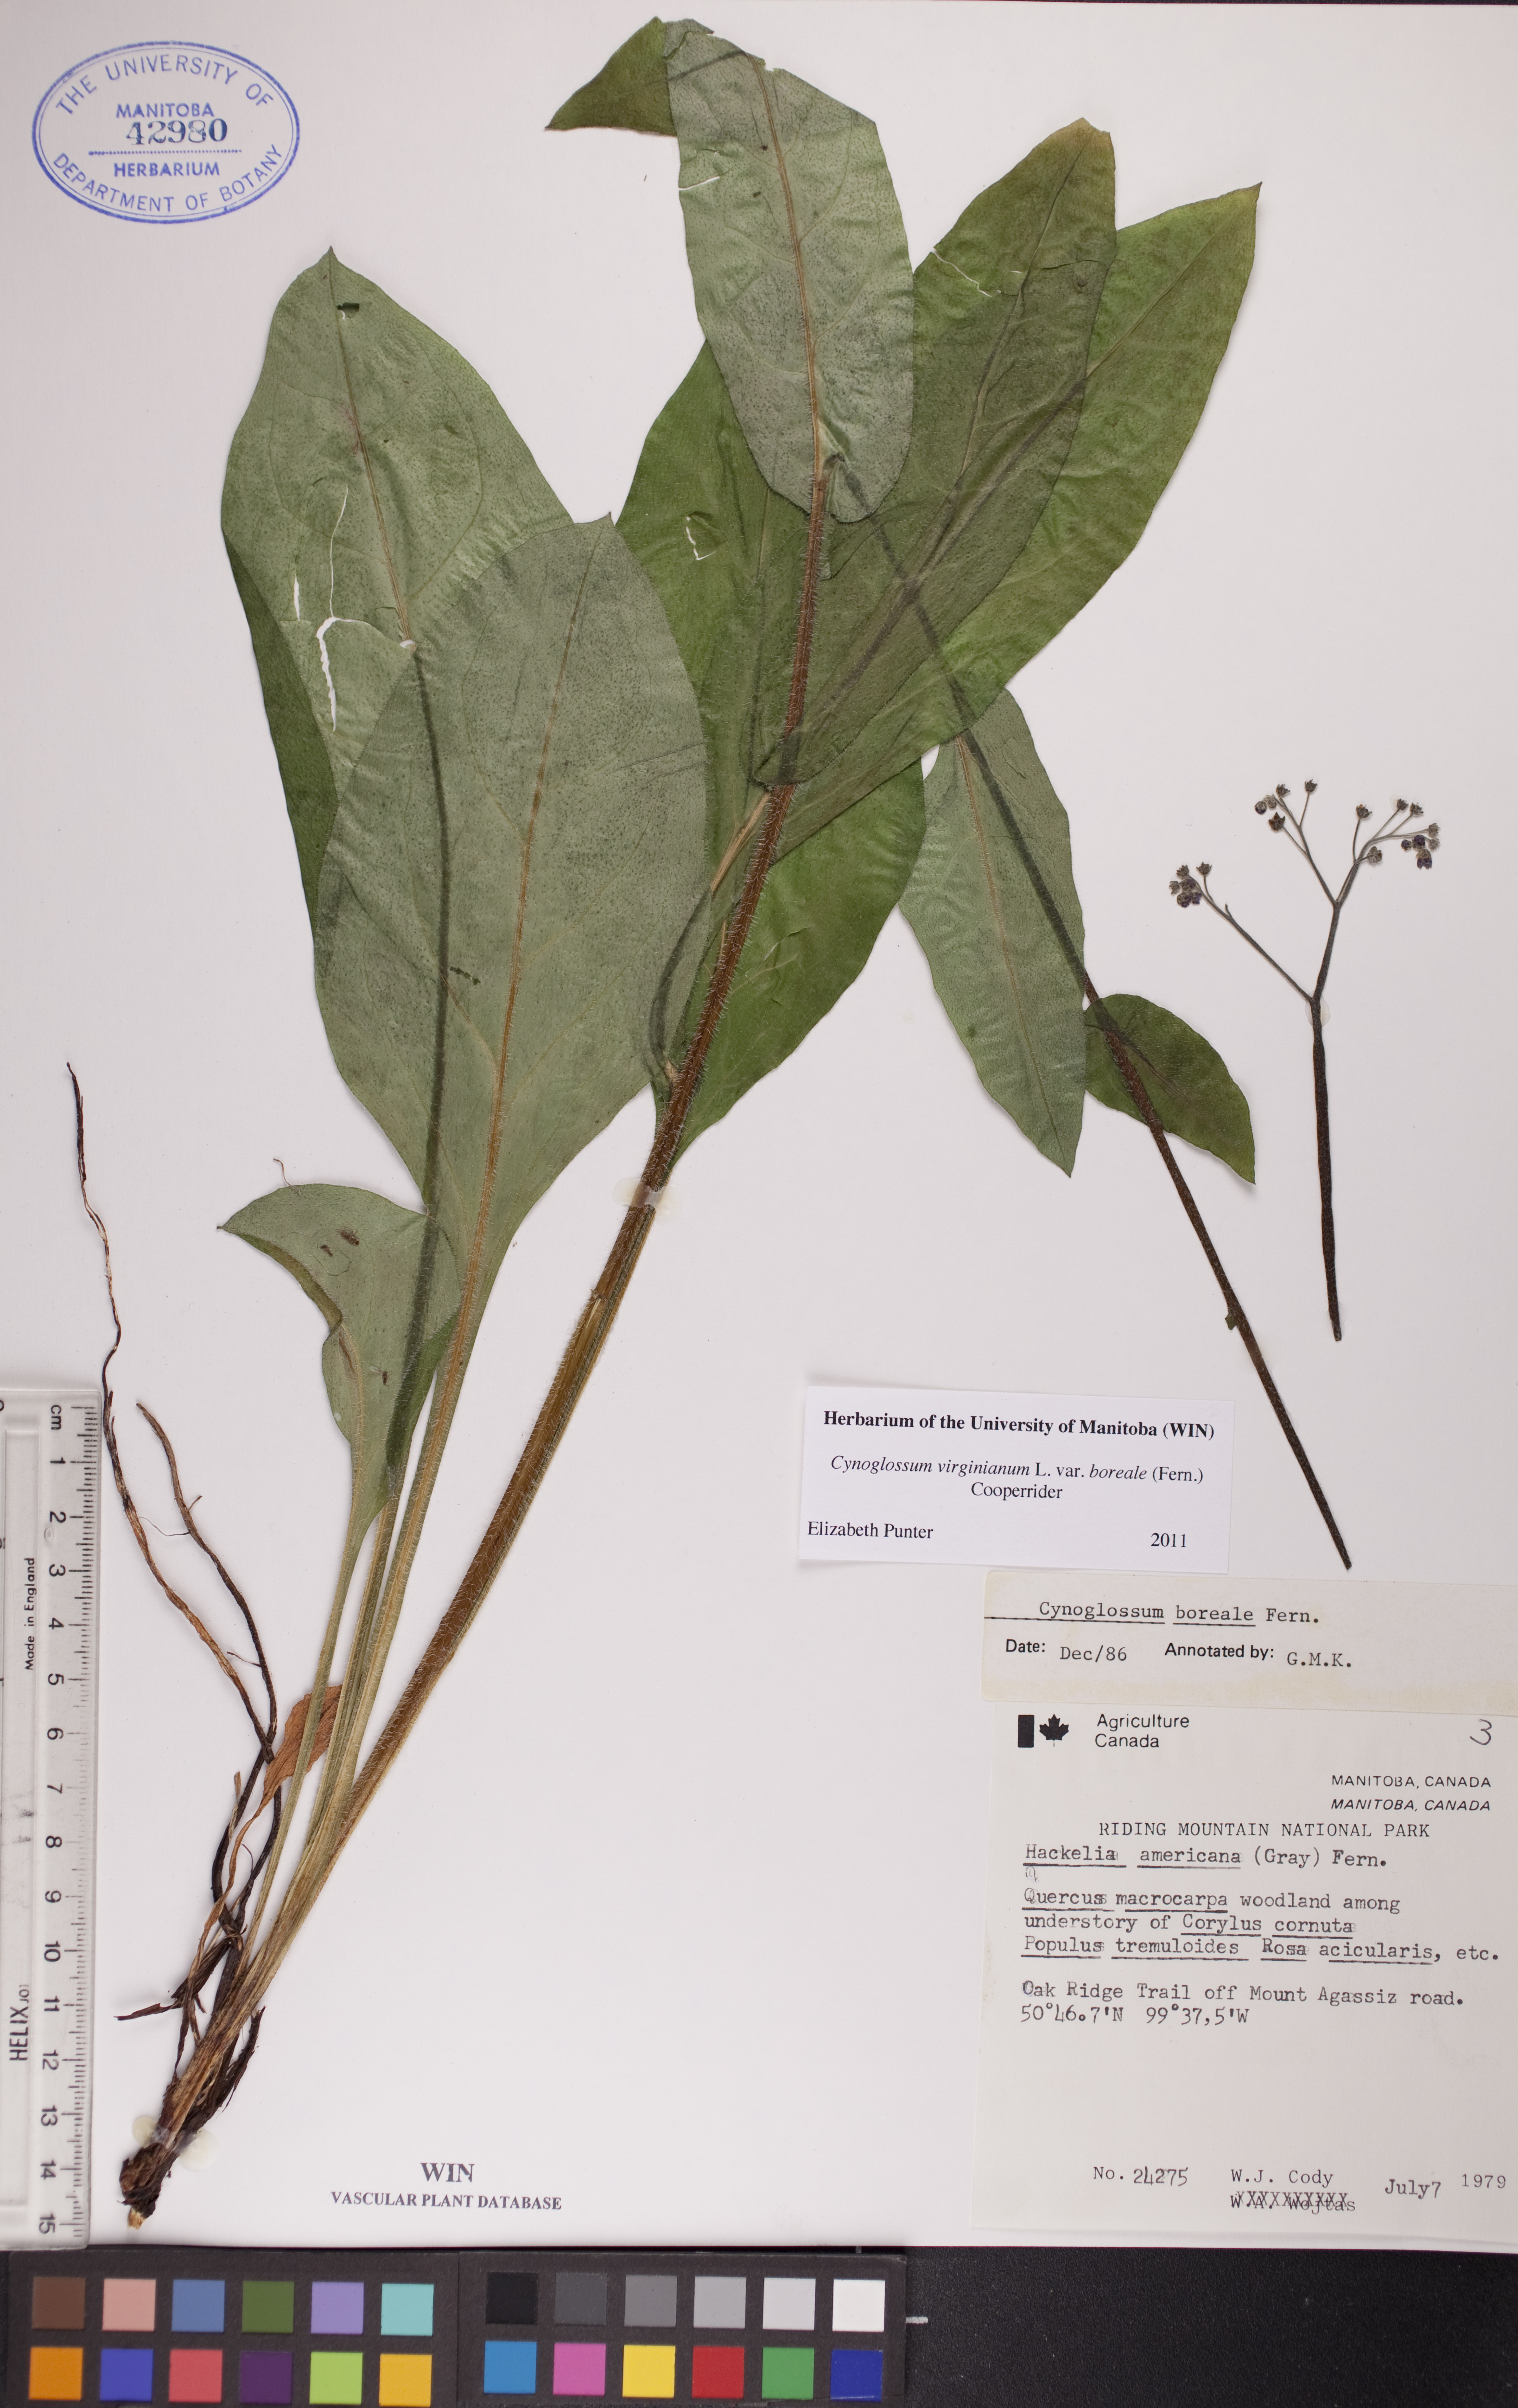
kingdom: Plantae
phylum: Tracheophyta
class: Magnoliopsida
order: Boraginales
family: Boraginaceae
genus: Andersonglossum
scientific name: Andersonglossum boreale
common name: Northern hound's-tongue
